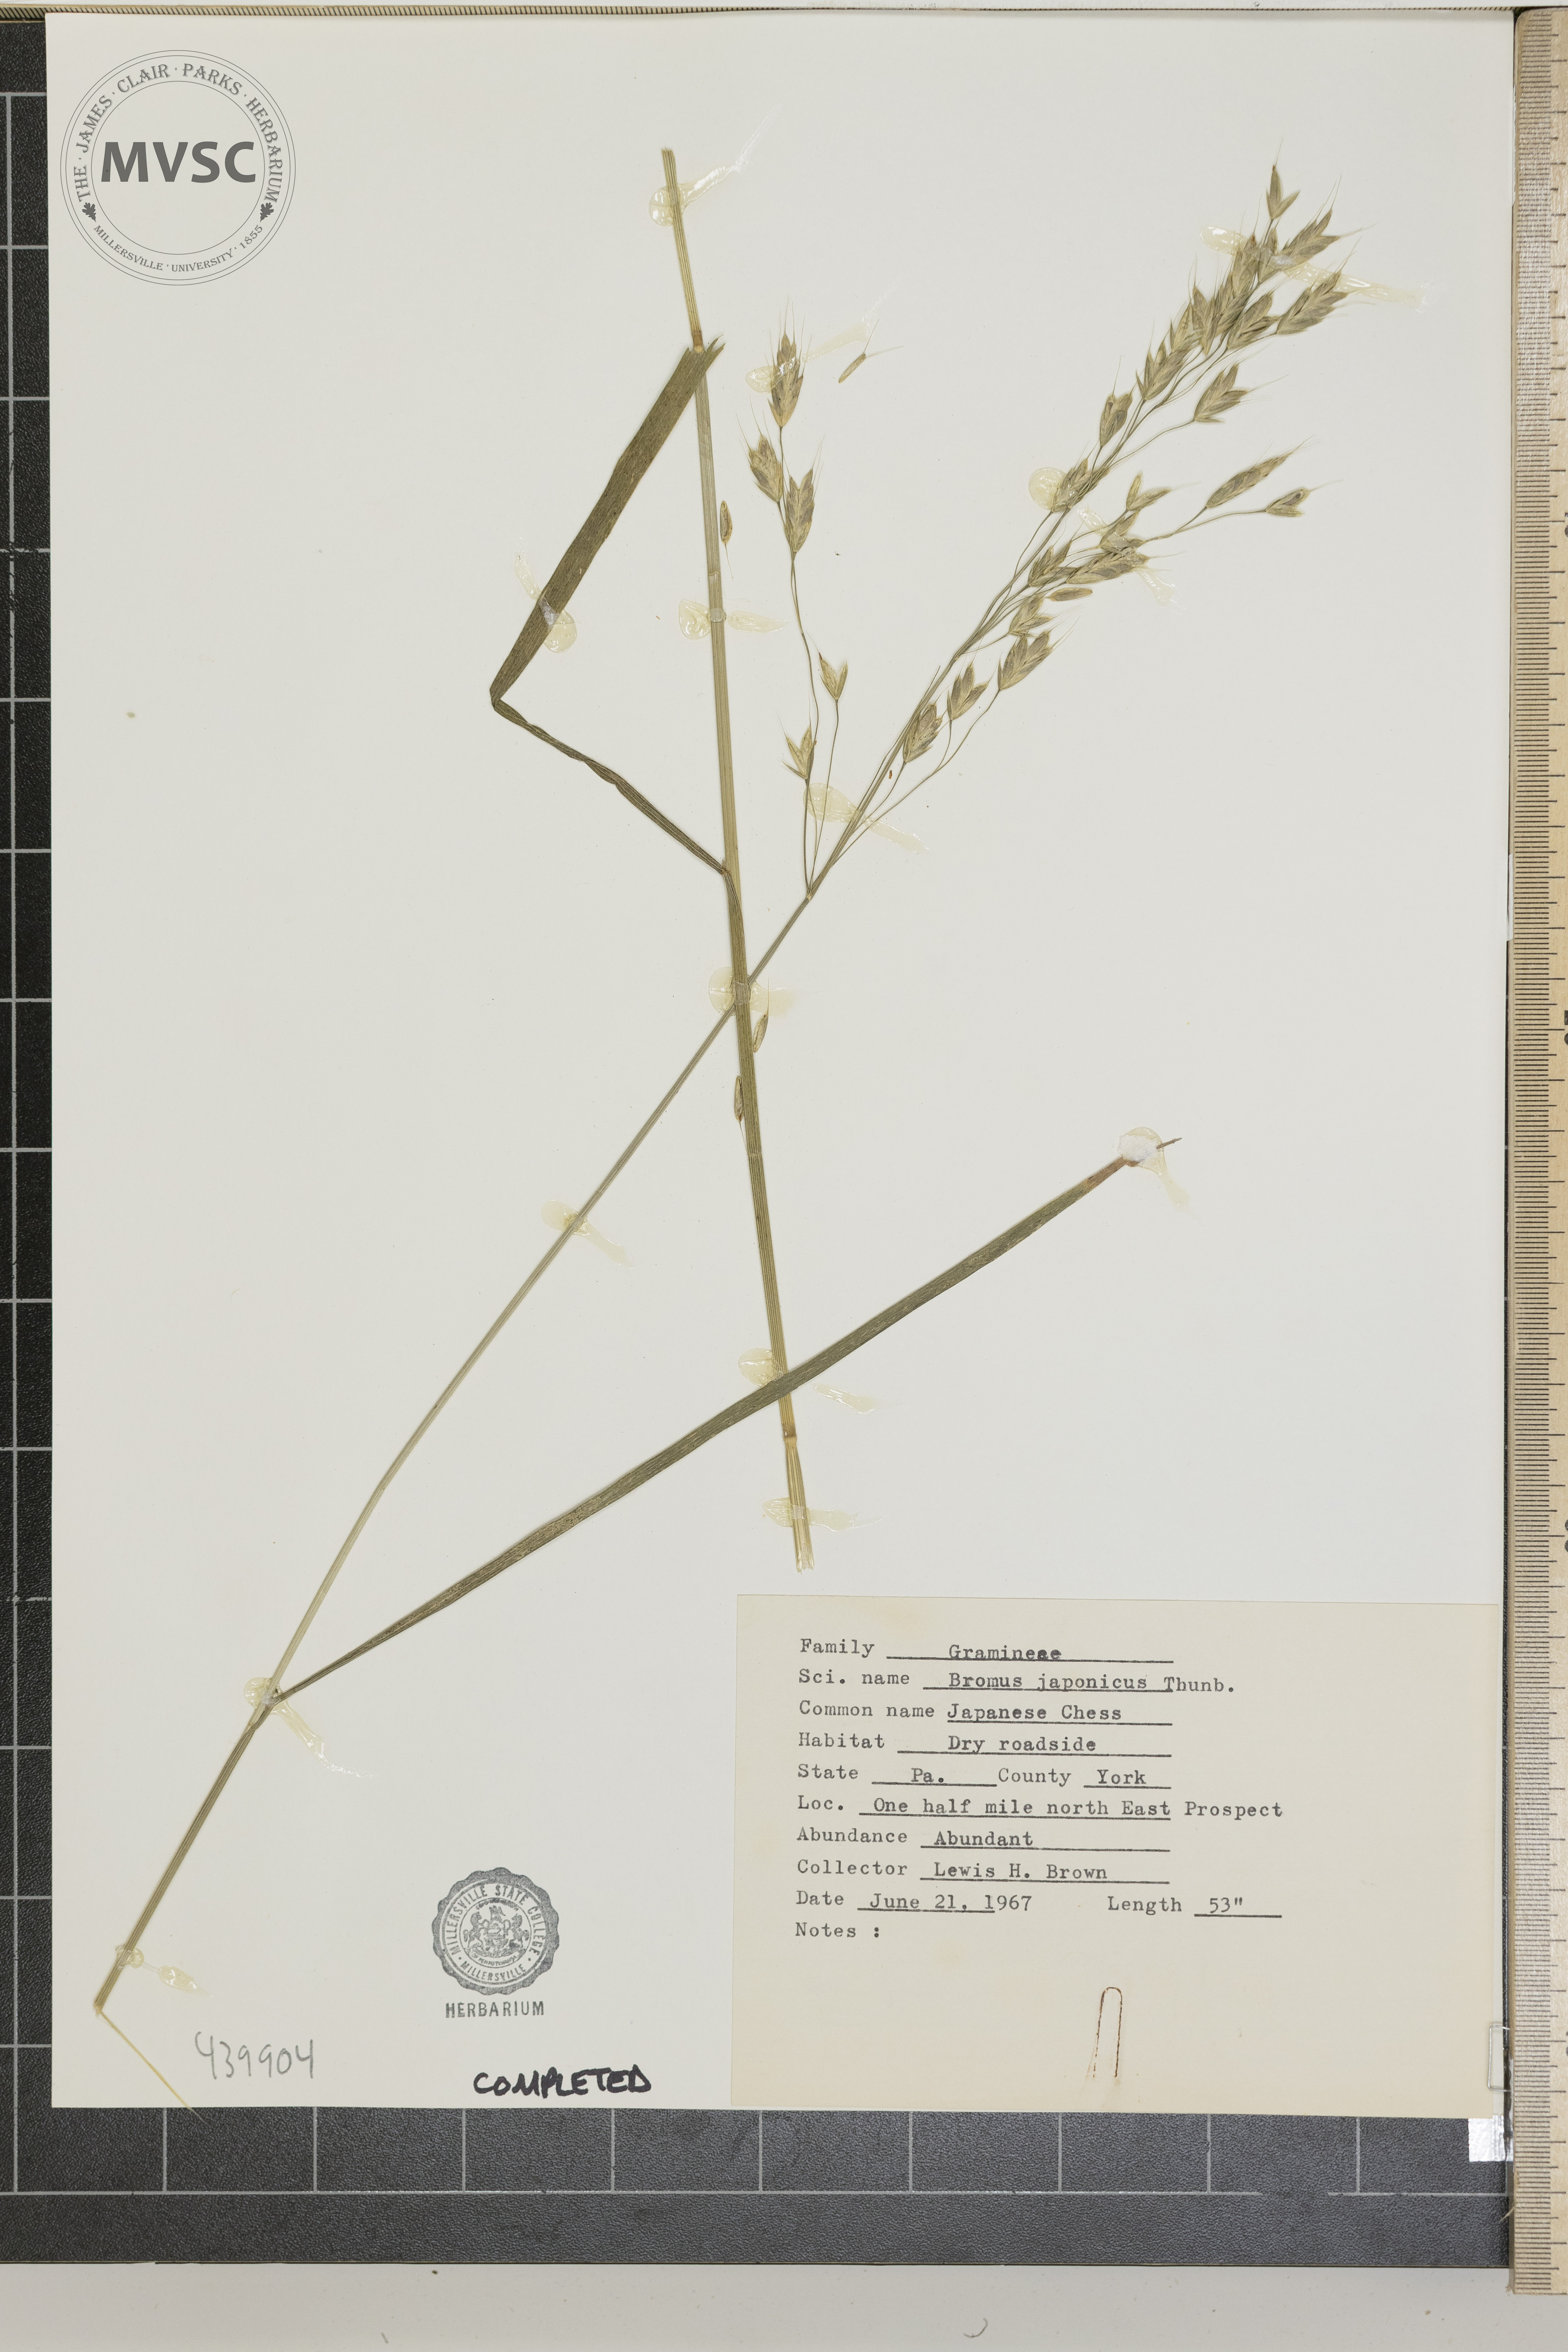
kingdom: Plantae
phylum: Tracheophyta
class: Liliopsida
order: Poales
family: Poaceae
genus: Bromus
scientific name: Bromus japonicus
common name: Japanese Chess
